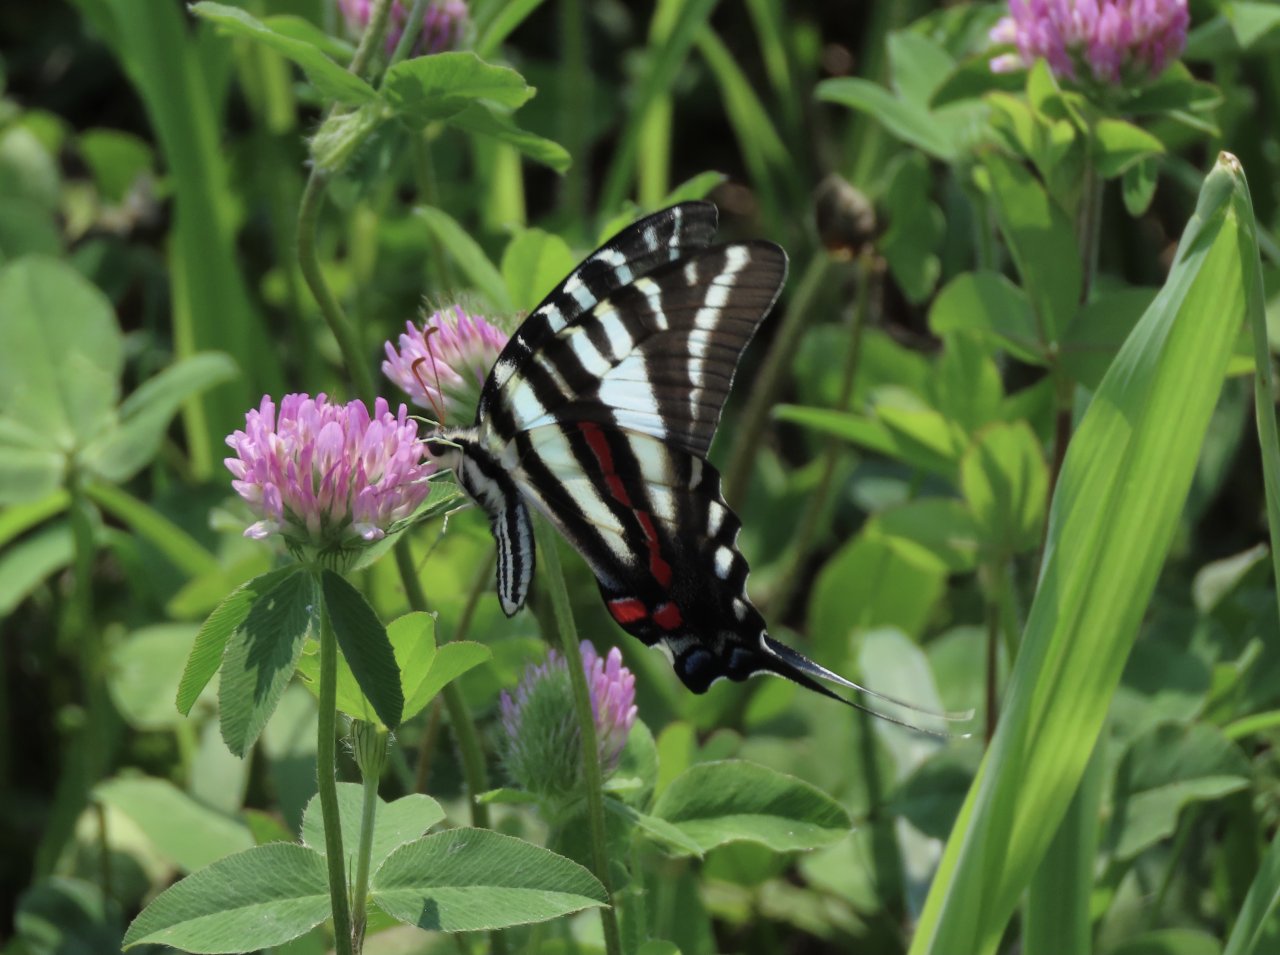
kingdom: Animalia
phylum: Arthropoda
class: Insecta
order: Lepidoptera
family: Papilionidae
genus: Protographium
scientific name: Protographium marcellus
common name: Zebra Swallowtail
